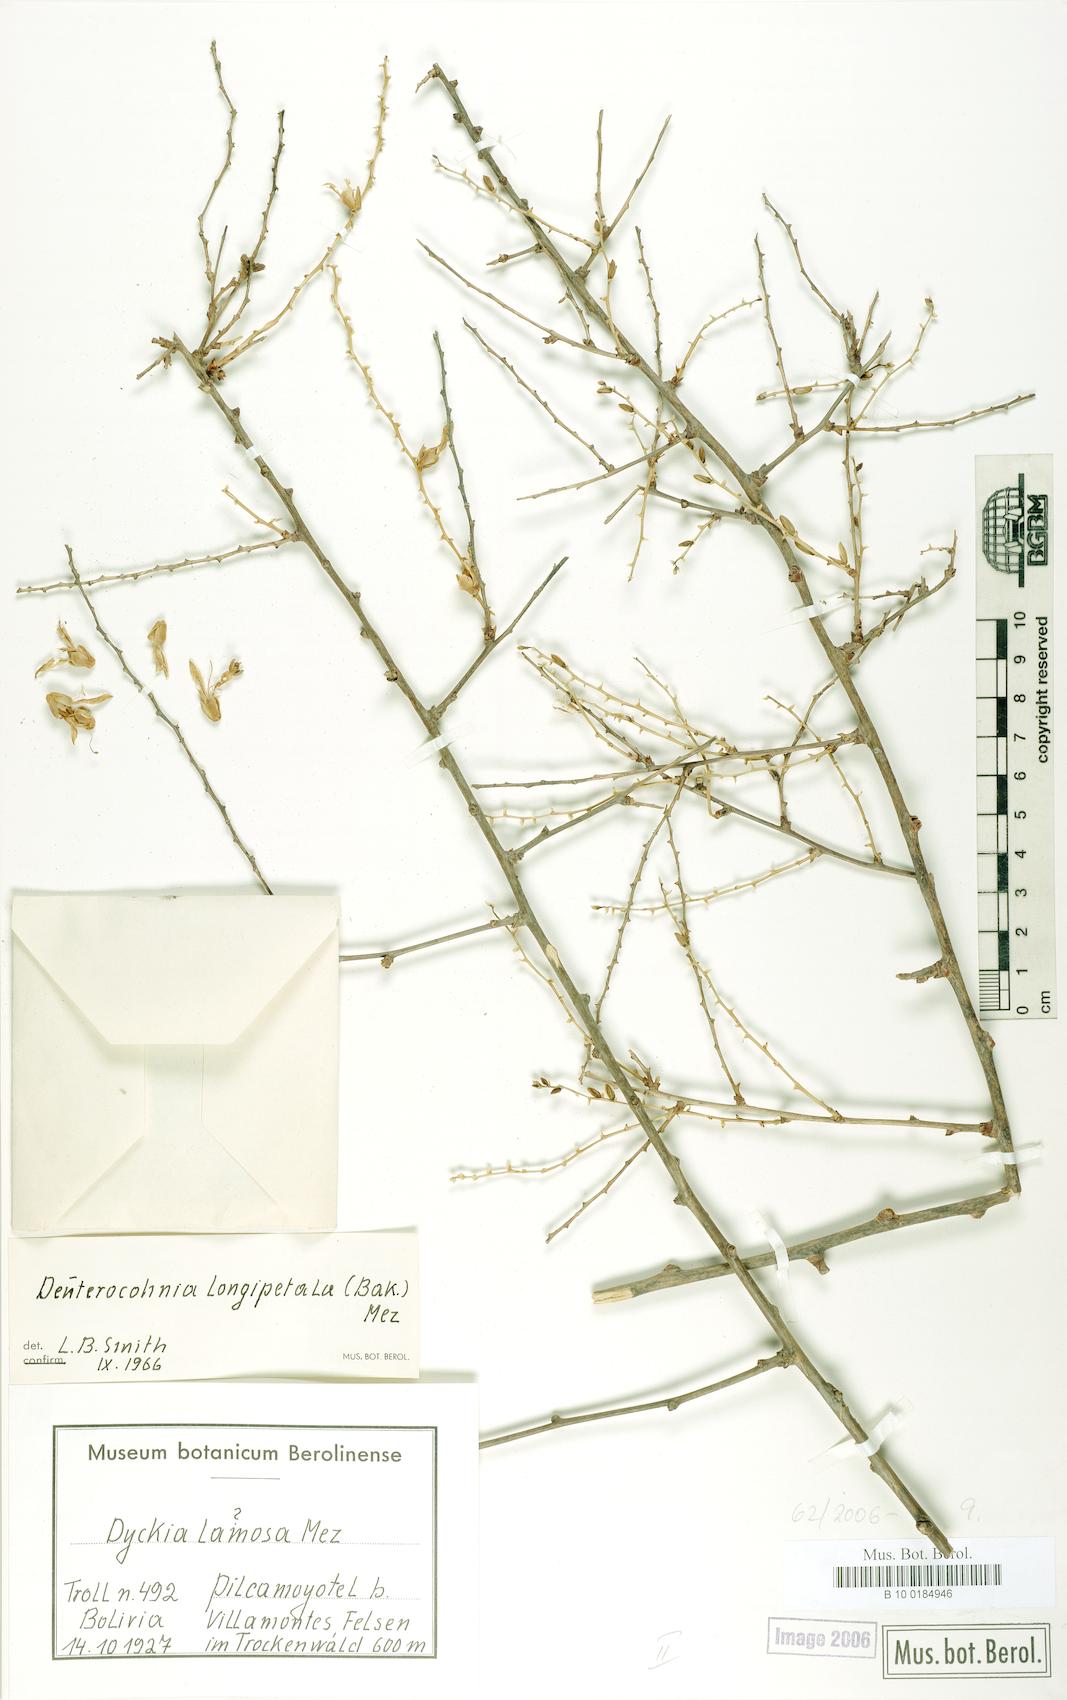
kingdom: Plantae
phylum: Tracheophyta
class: Liliopsida
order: Poales
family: Bromeliaceae
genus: Deuterocohnia
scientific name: Deuterocohnia longipetala
